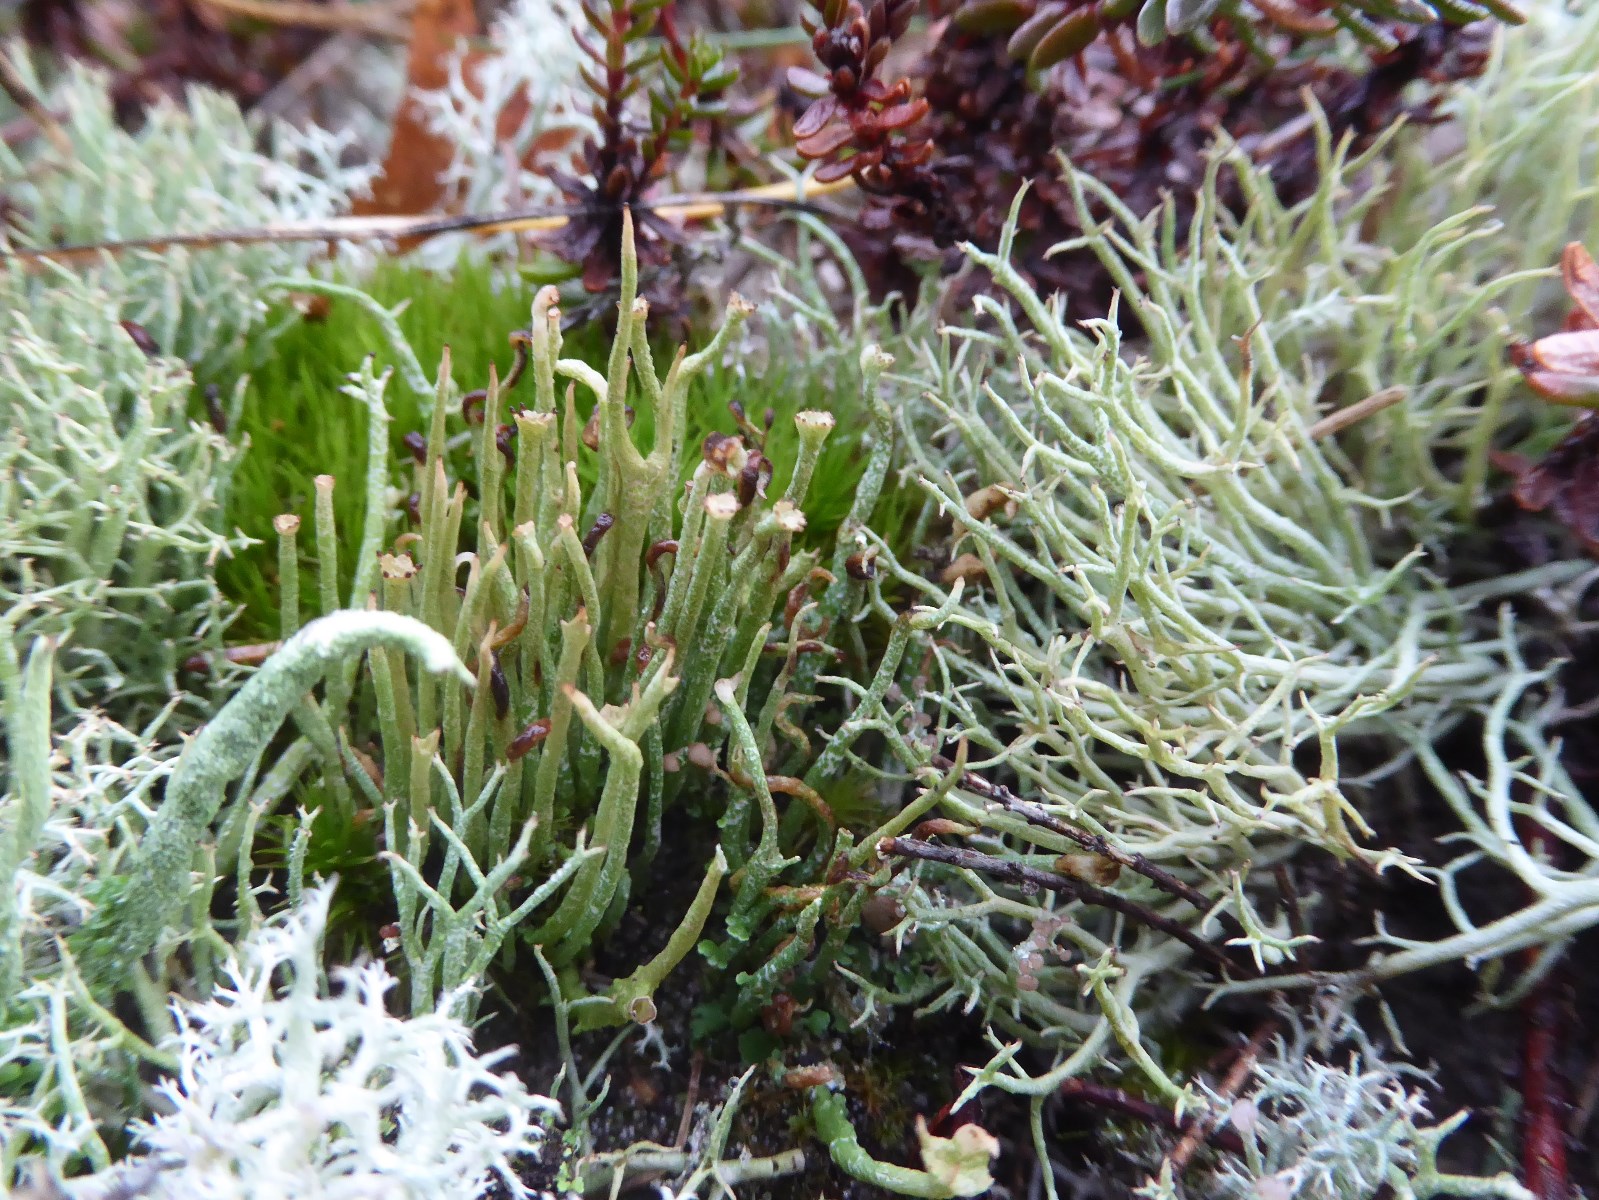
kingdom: Fungi
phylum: Ascomycota
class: Lecanoromycetes
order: Lecanorales
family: Cladoniaceae
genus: Cladonia
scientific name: Cladonia gracilis
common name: slank bægerlav
